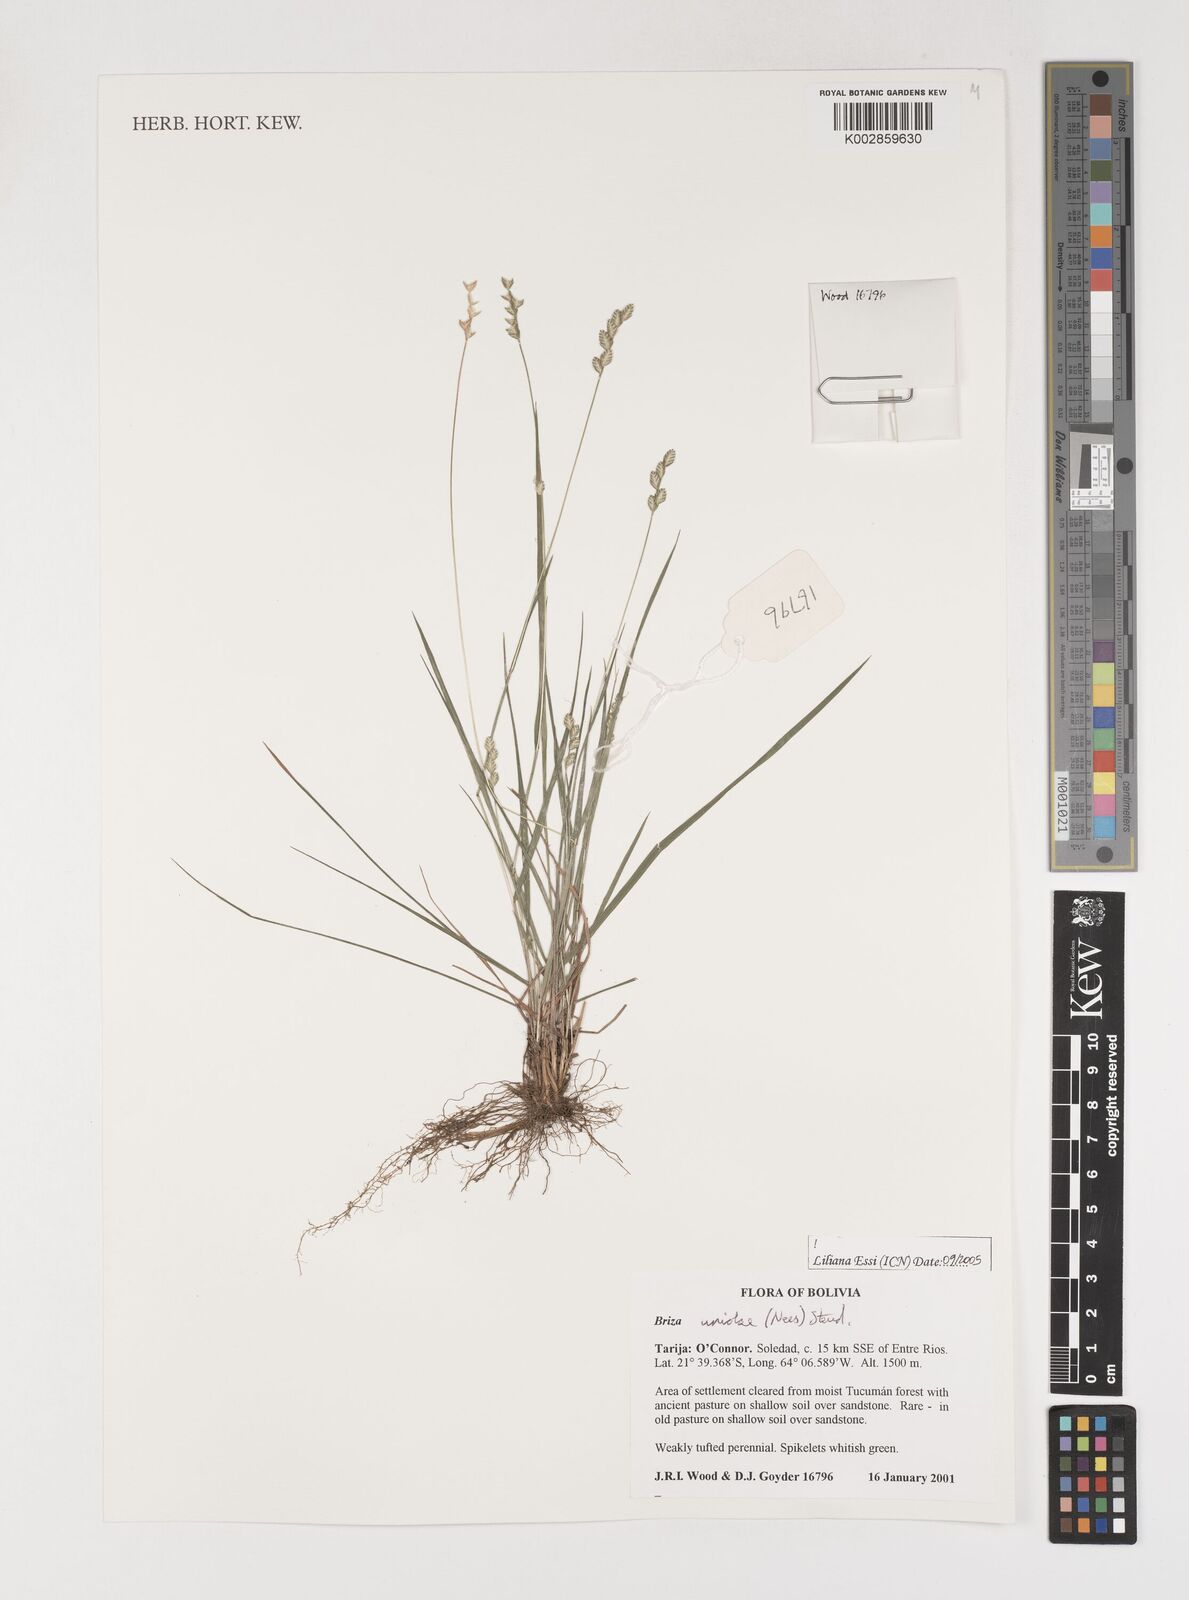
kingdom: Plantae
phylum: Tracheophyta
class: Liliopsida
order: Poales
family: Poaceae
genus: Poidium
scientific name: Poidium uniolae
